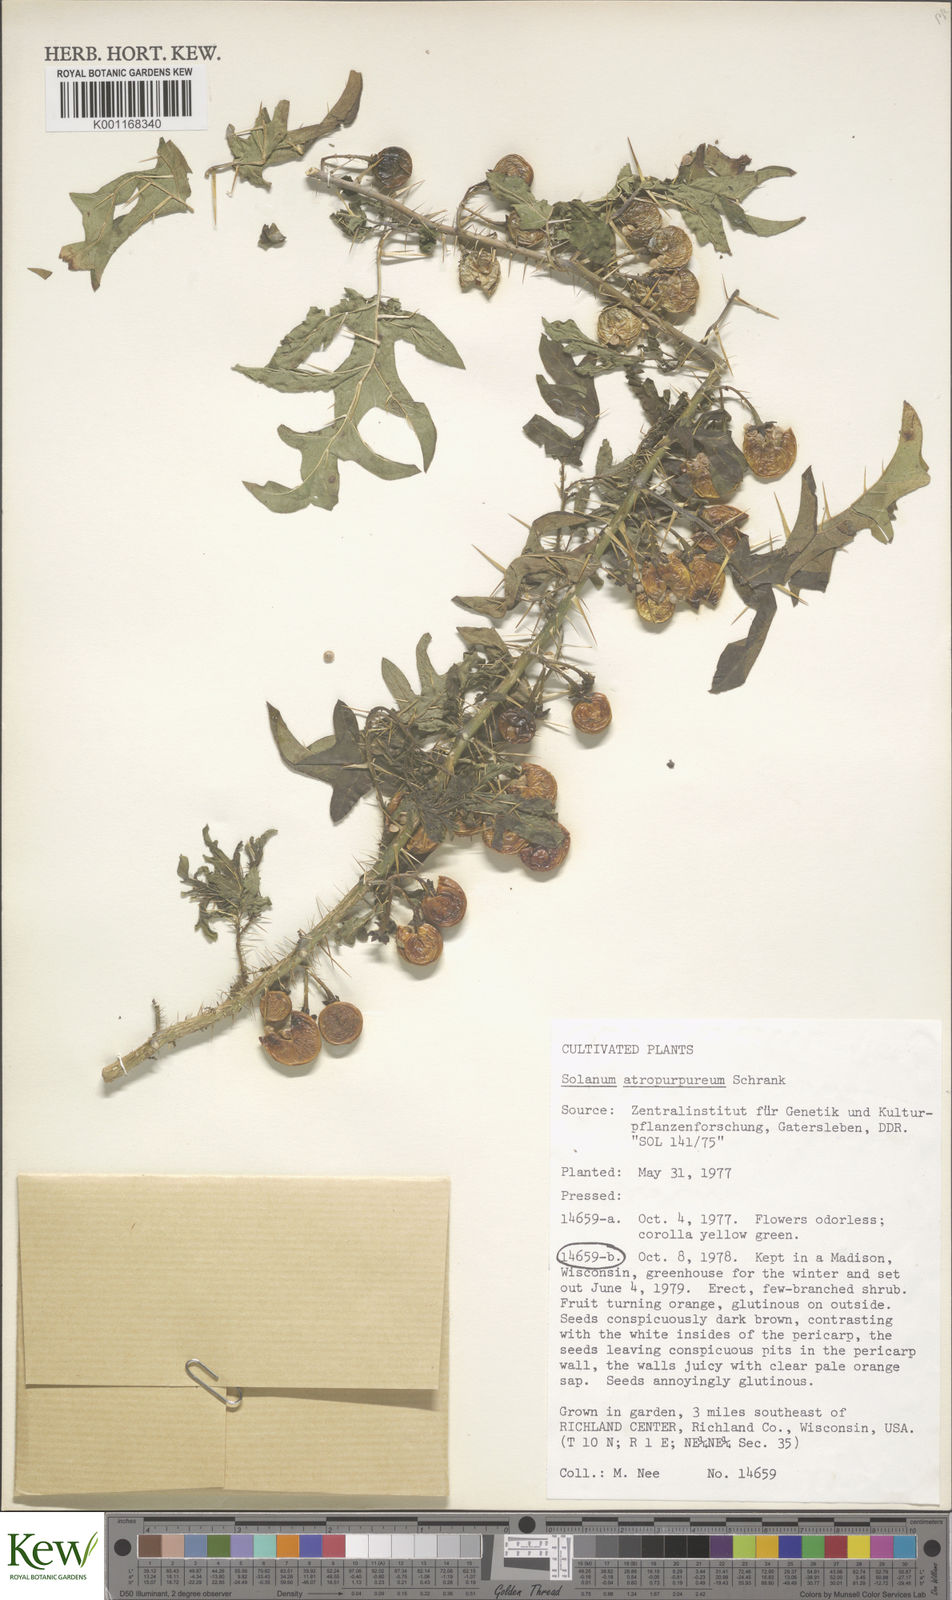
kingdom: Plantae
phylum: Tracheophyta
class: Magnoliopsida
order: Solanales
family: Solanaceae
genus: Solanum
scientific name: Solanum atropurpureum
